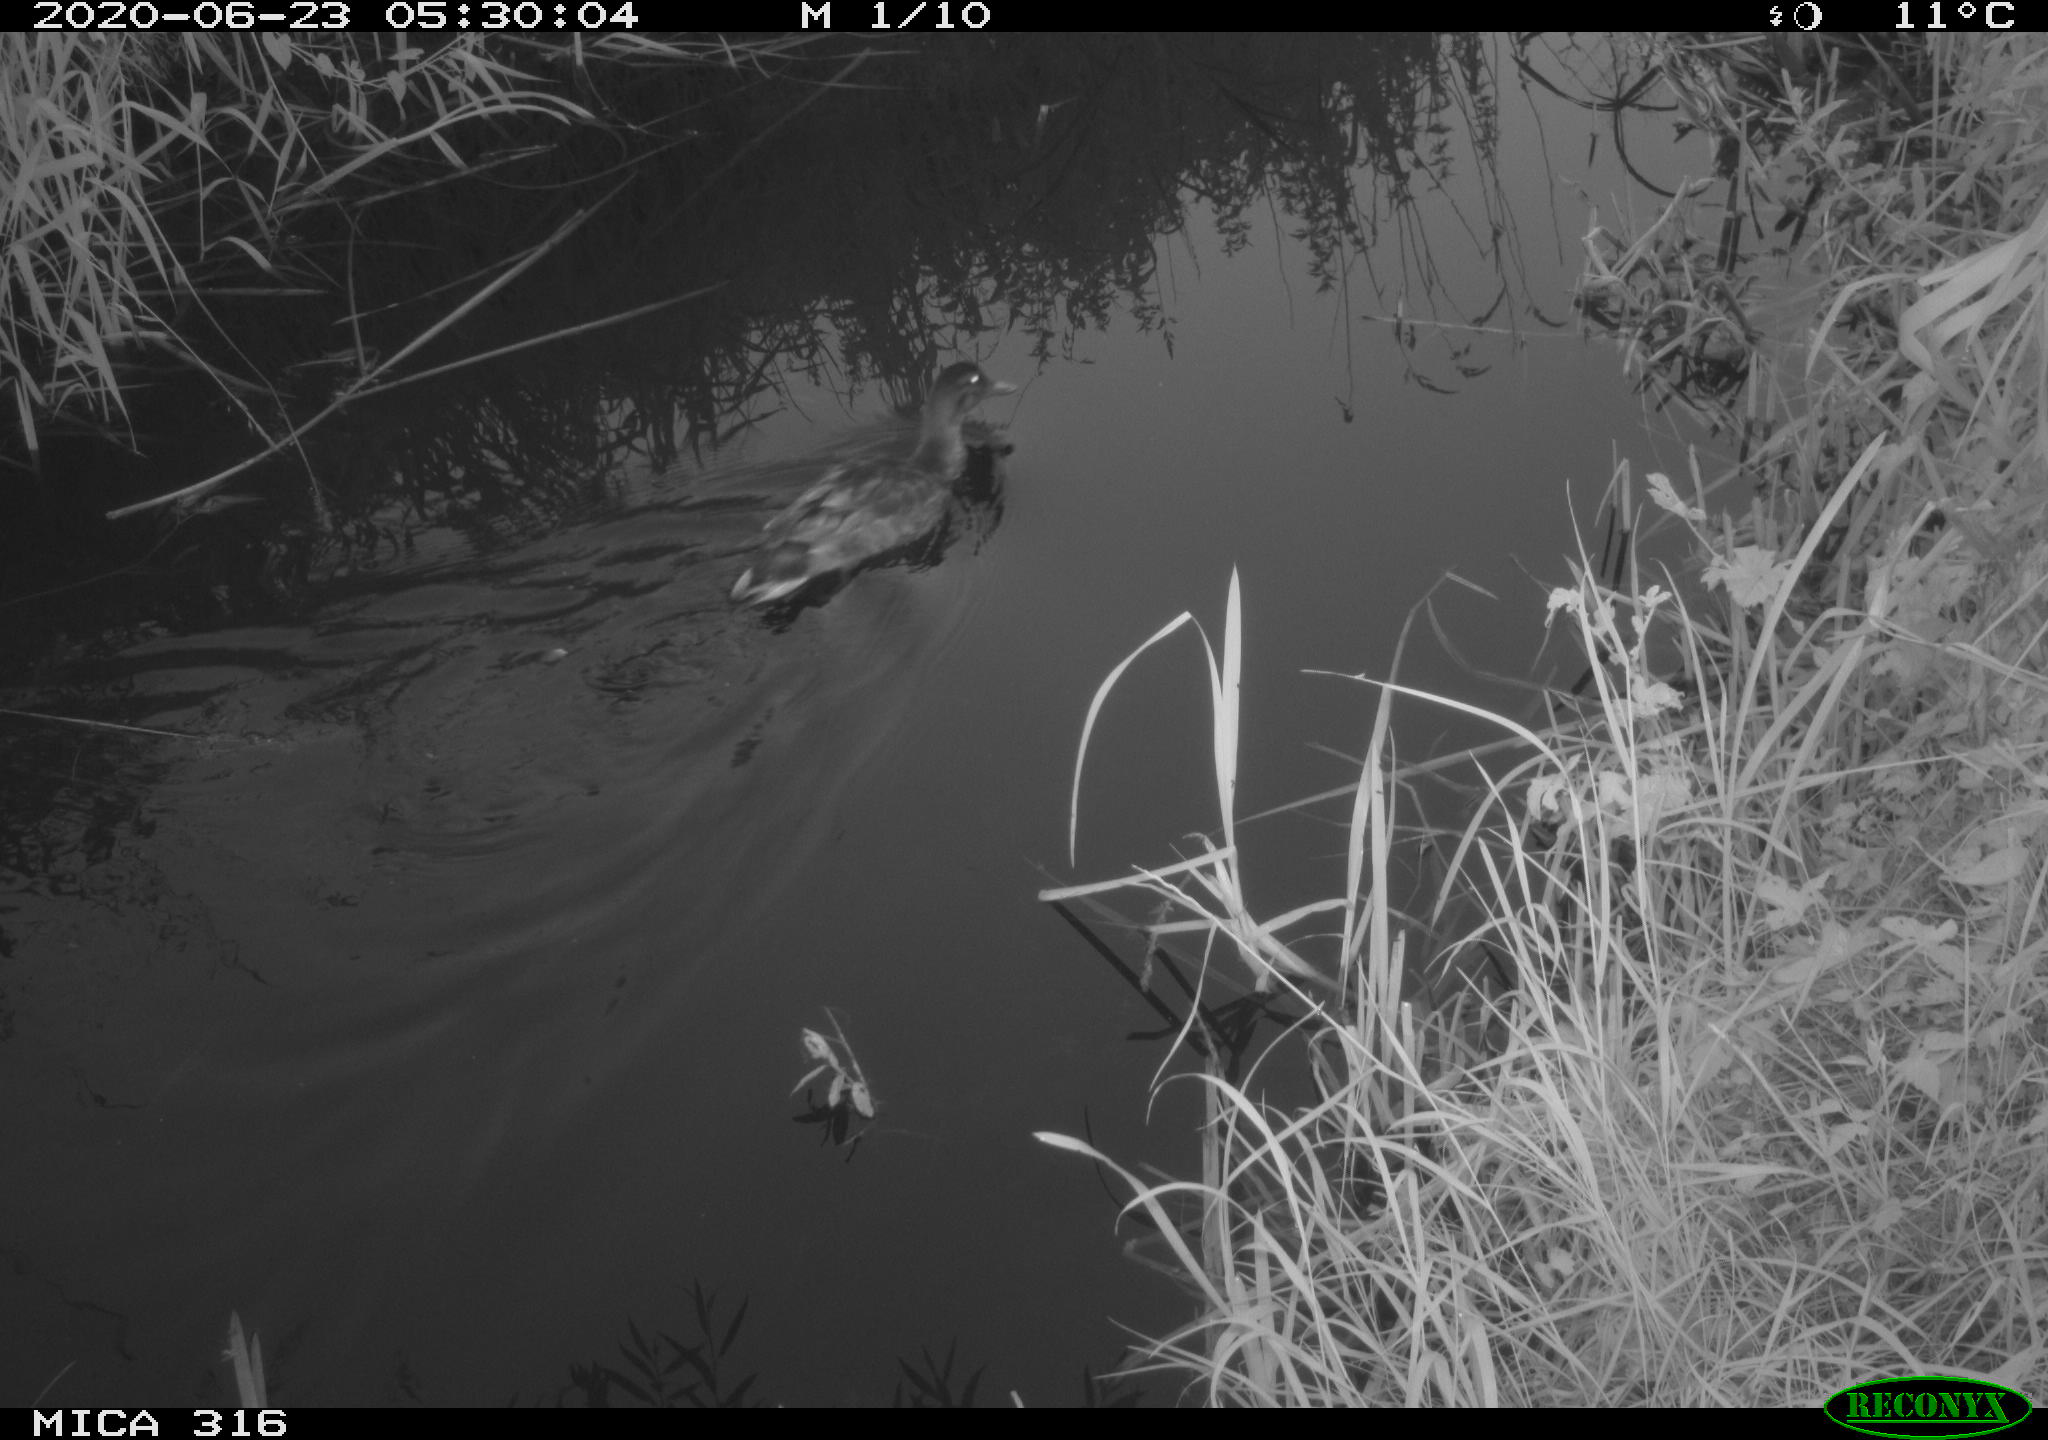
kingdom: Animalia
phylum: Chordata
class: Aves
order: Anseriformes
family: Anatidae
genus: Anas
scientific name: Anas platyrhynchos
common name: Mallard
